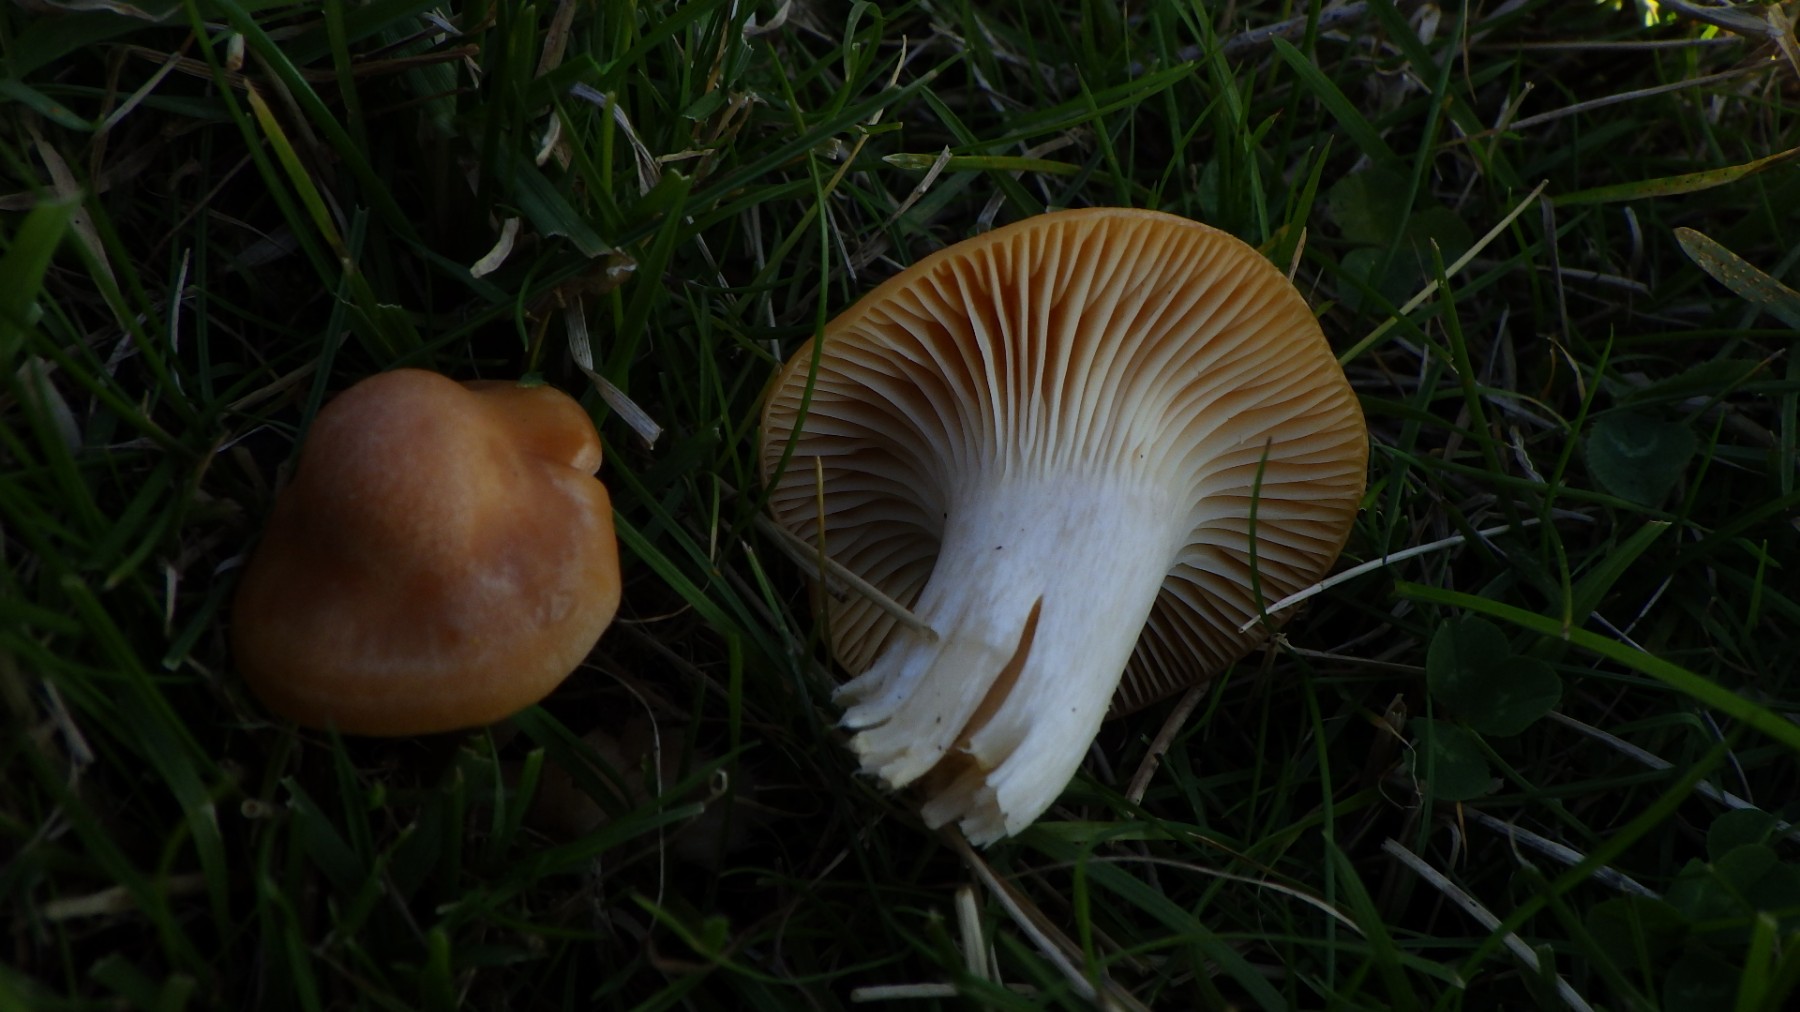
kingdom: Fungi
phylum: Basidiomycota
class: Agaricomycetes
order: Agaricales
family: Hygrophoraceae
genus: Cuphophyllus
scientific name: Cuphophyllus pratensis
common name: eng-vokshat
